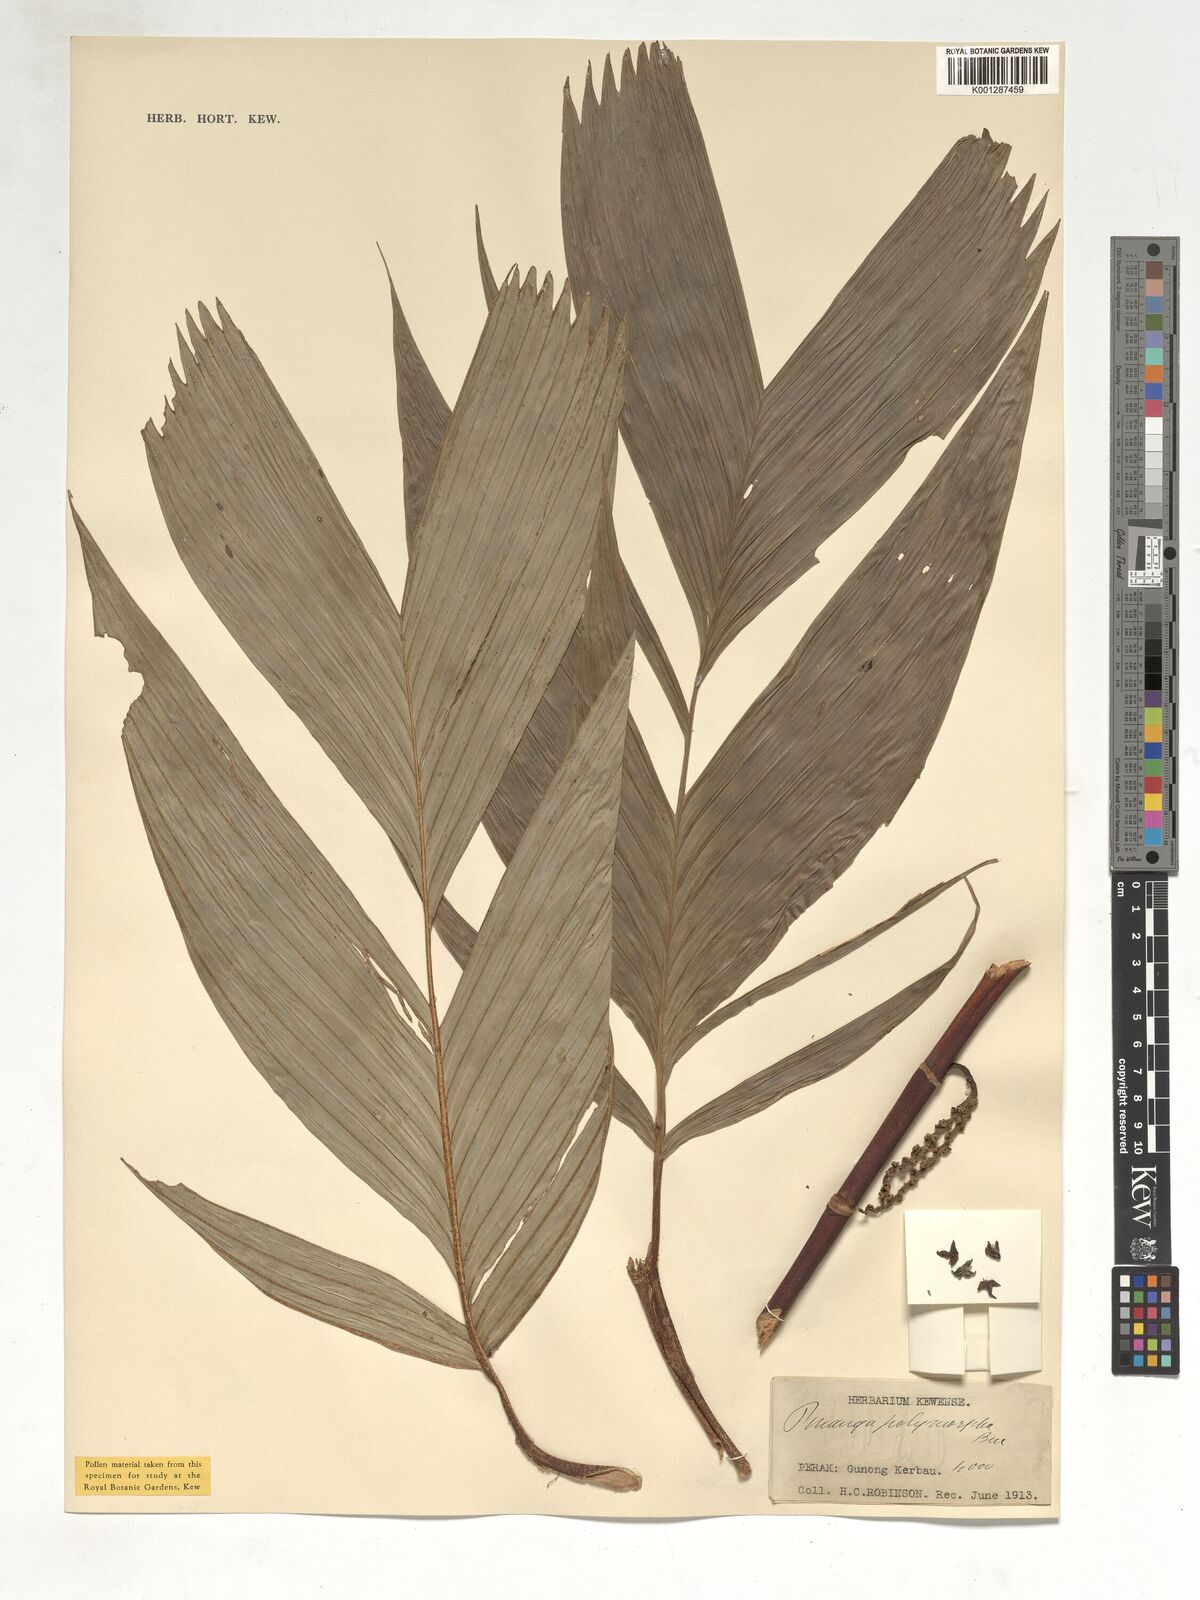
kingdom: Plantae
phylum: Tracheophyta
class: Liliopsida
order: Arecales
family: Arecaceae
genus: Pinanga
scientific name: Pinanga polymorpha
